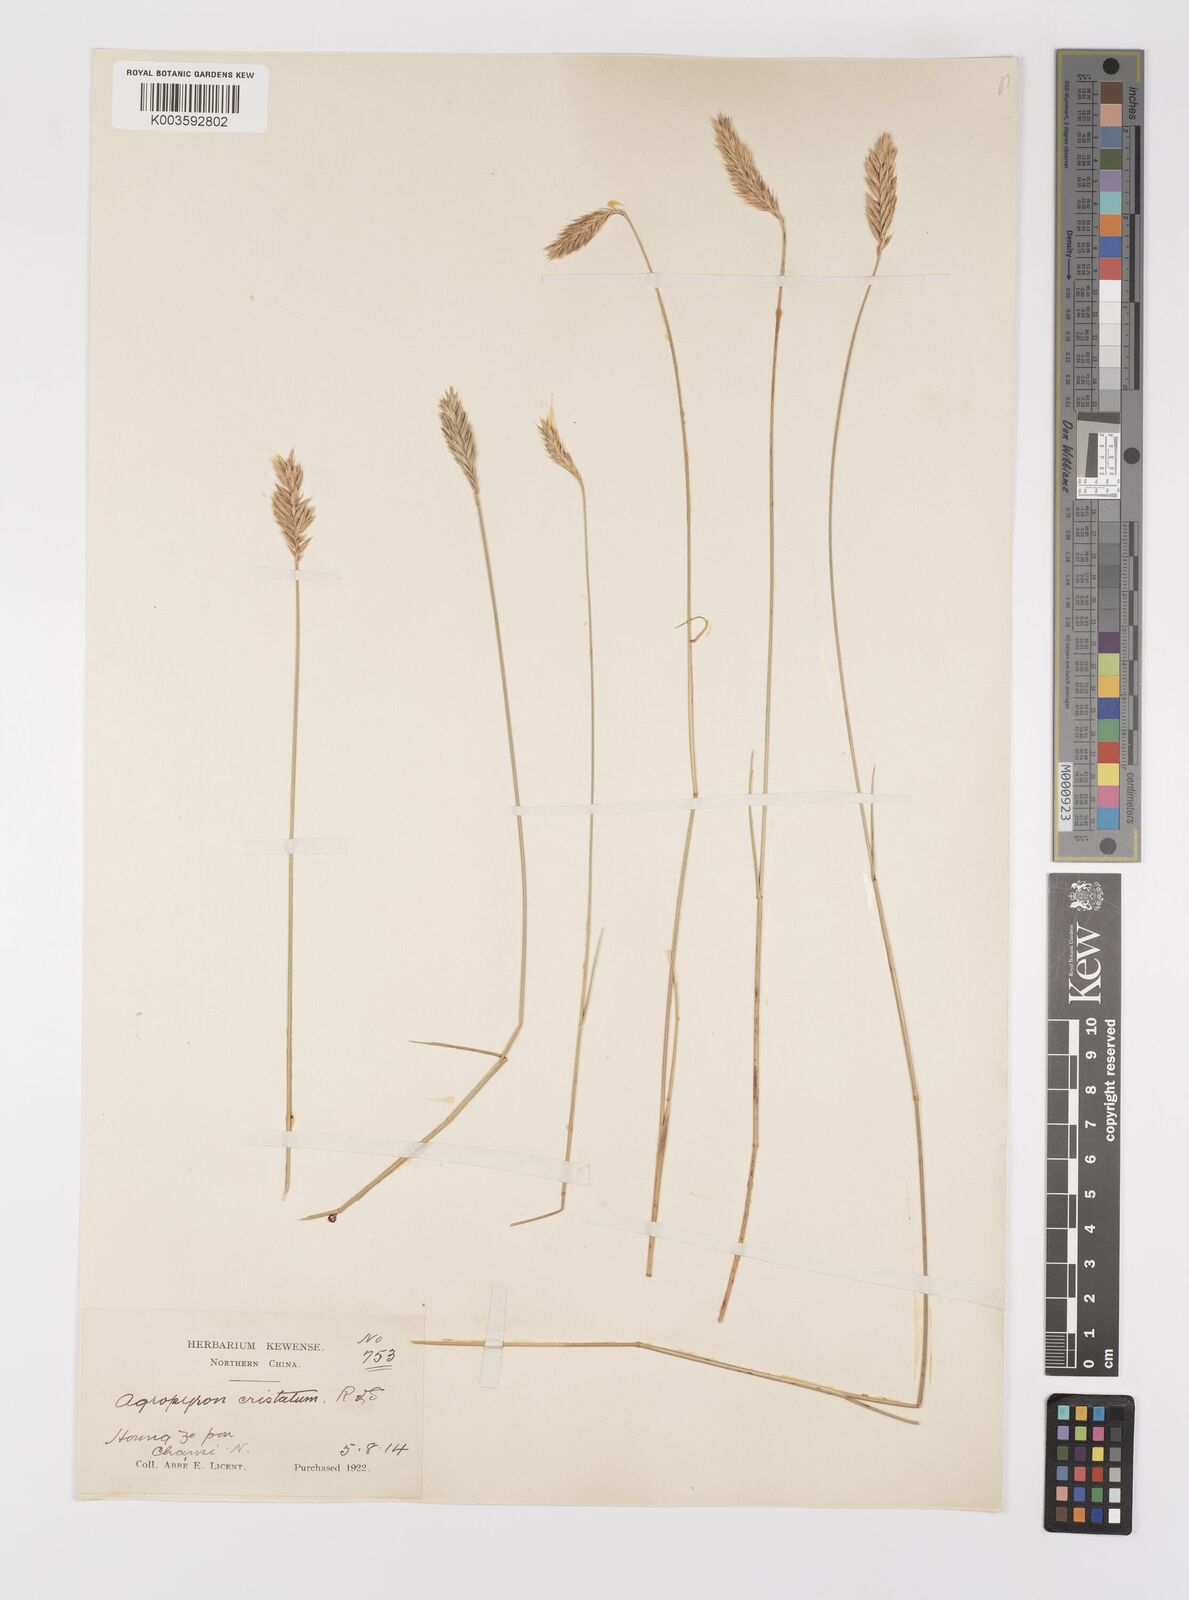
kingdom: Plantae
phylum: Tracheophyta
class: Liliopsida
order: Poales
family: Poaceae
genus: Agropyron
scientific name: Agropyron cristatum
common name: Crested wheatgrass
